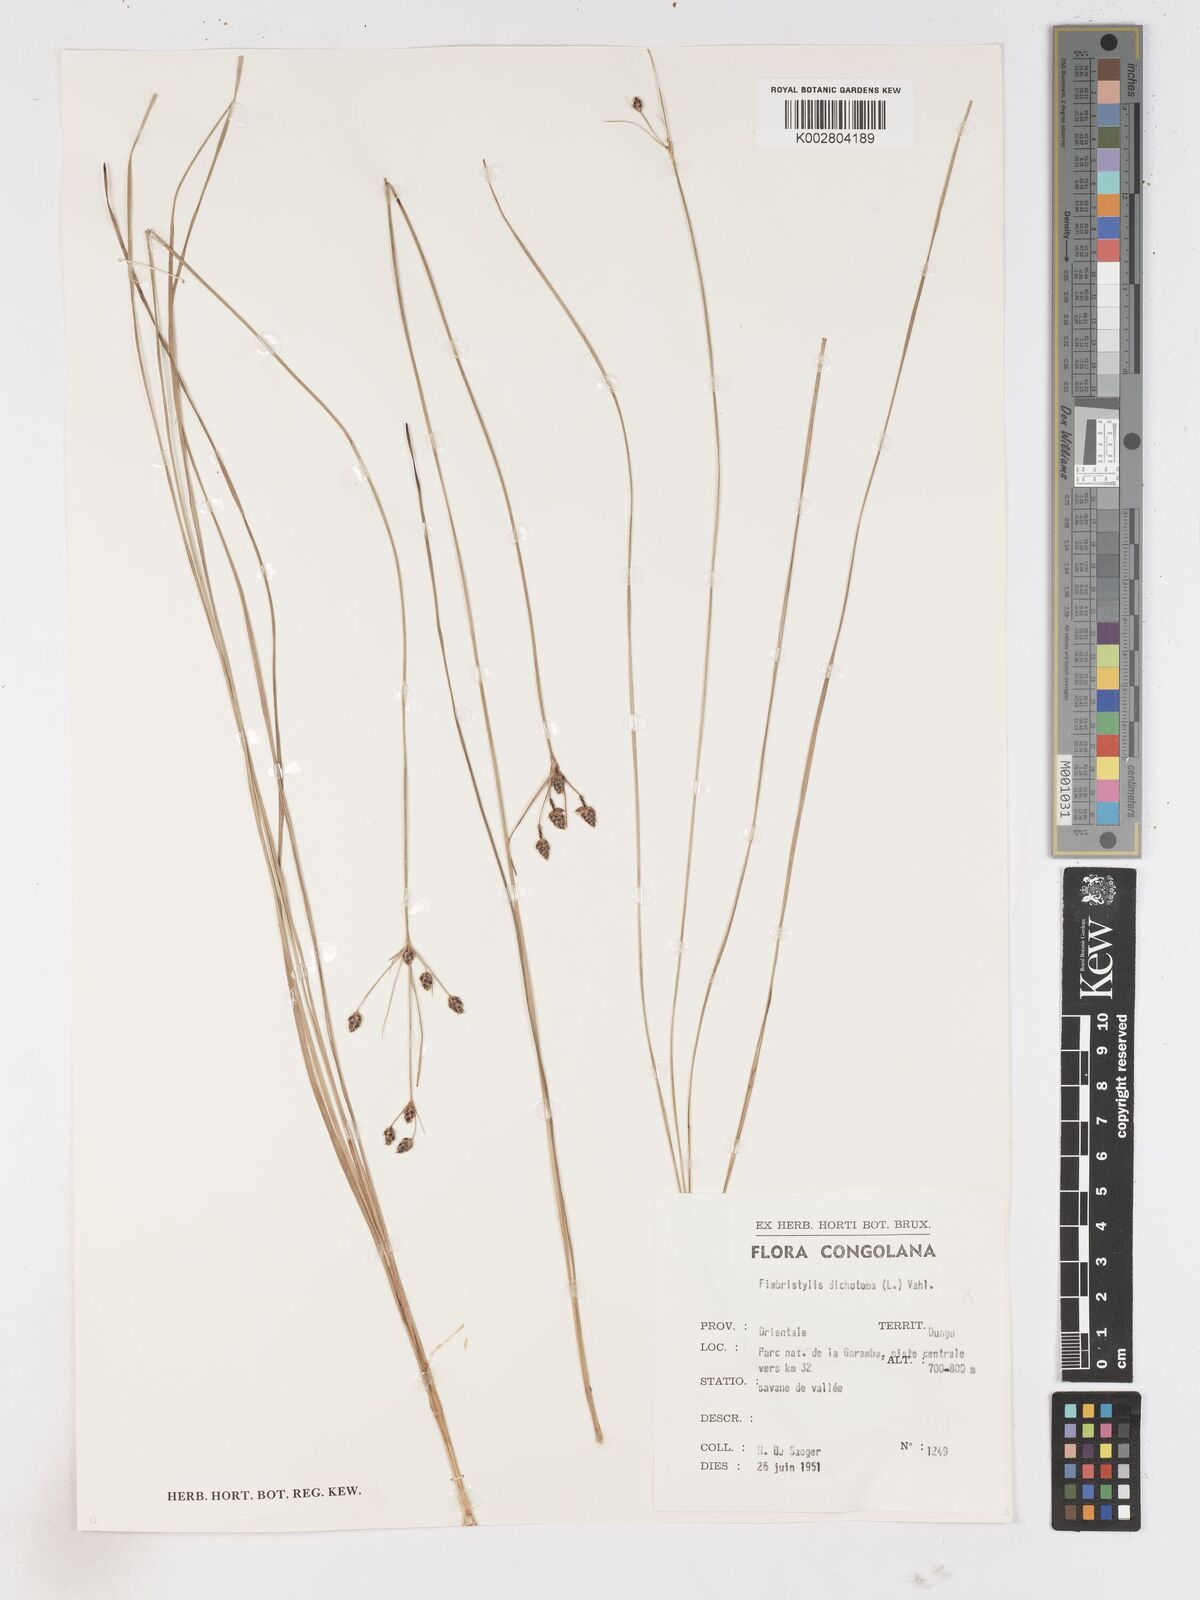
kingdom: Plantae
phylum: Tracheophyta
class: Liliopsida
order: Poales
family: Cyperaceae
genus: Fimbristylis
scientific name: Fimbristylis pilosa
